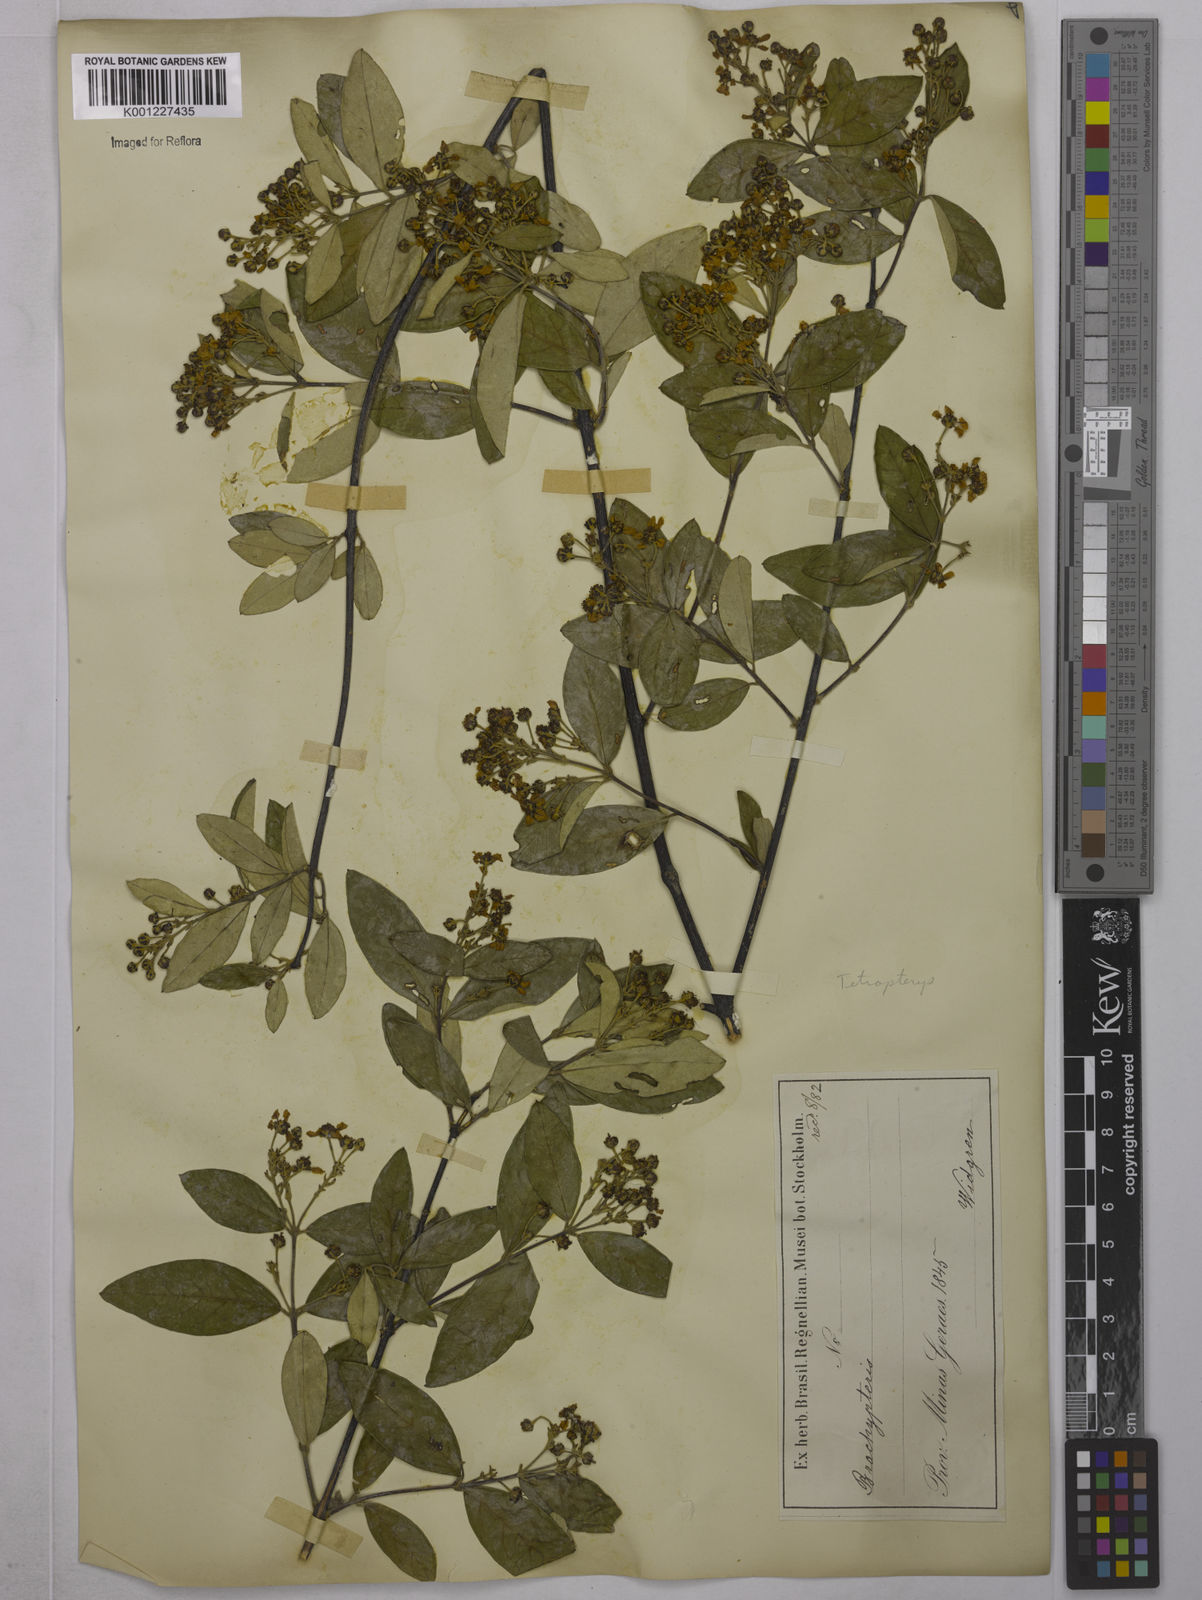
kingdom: Plantae
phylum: Tracheophyta
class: Magnoliopsida
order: Malpighiales
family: Malpighiaceae
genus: Tetrapterys
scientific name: Tetrapterys
